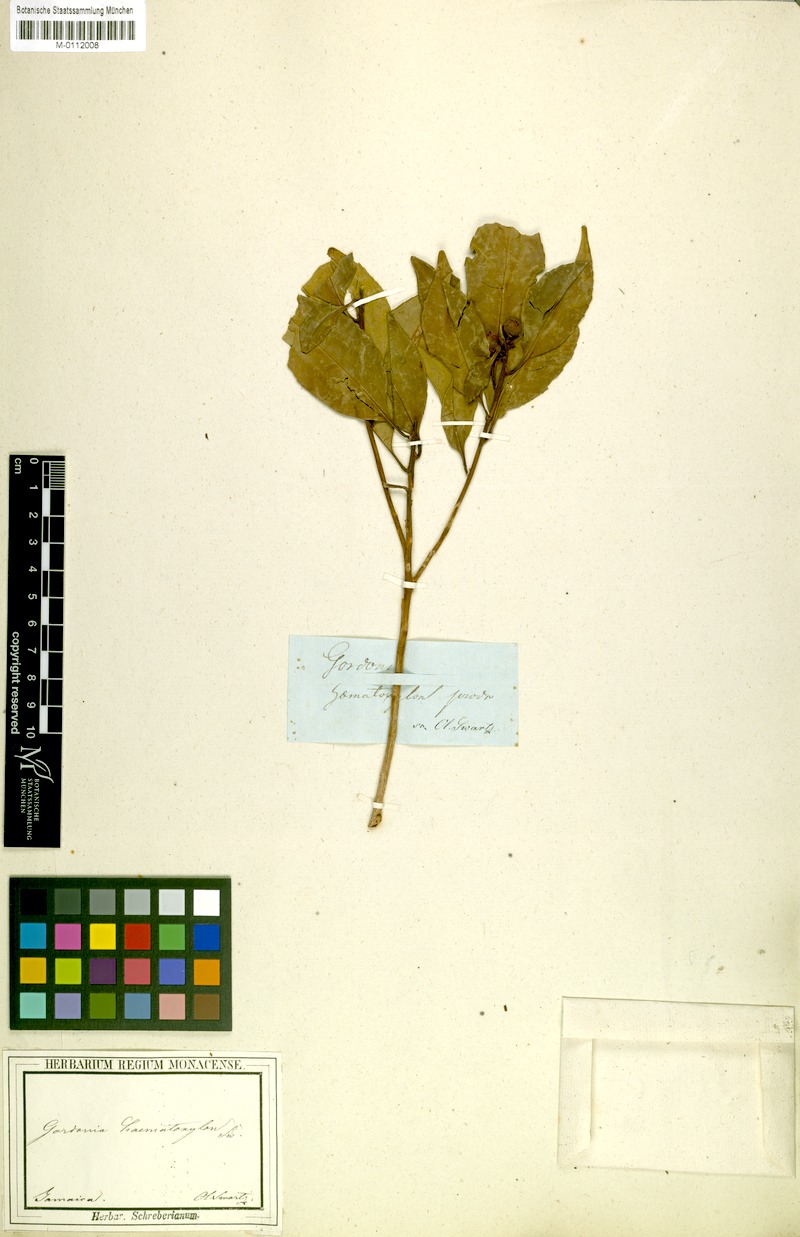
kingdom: Plantae
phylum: Tracheophyta
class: Magnoliopsida
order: Ericales
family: Theaceae
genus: Gordonia
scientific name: Gordonia haematoxylon
